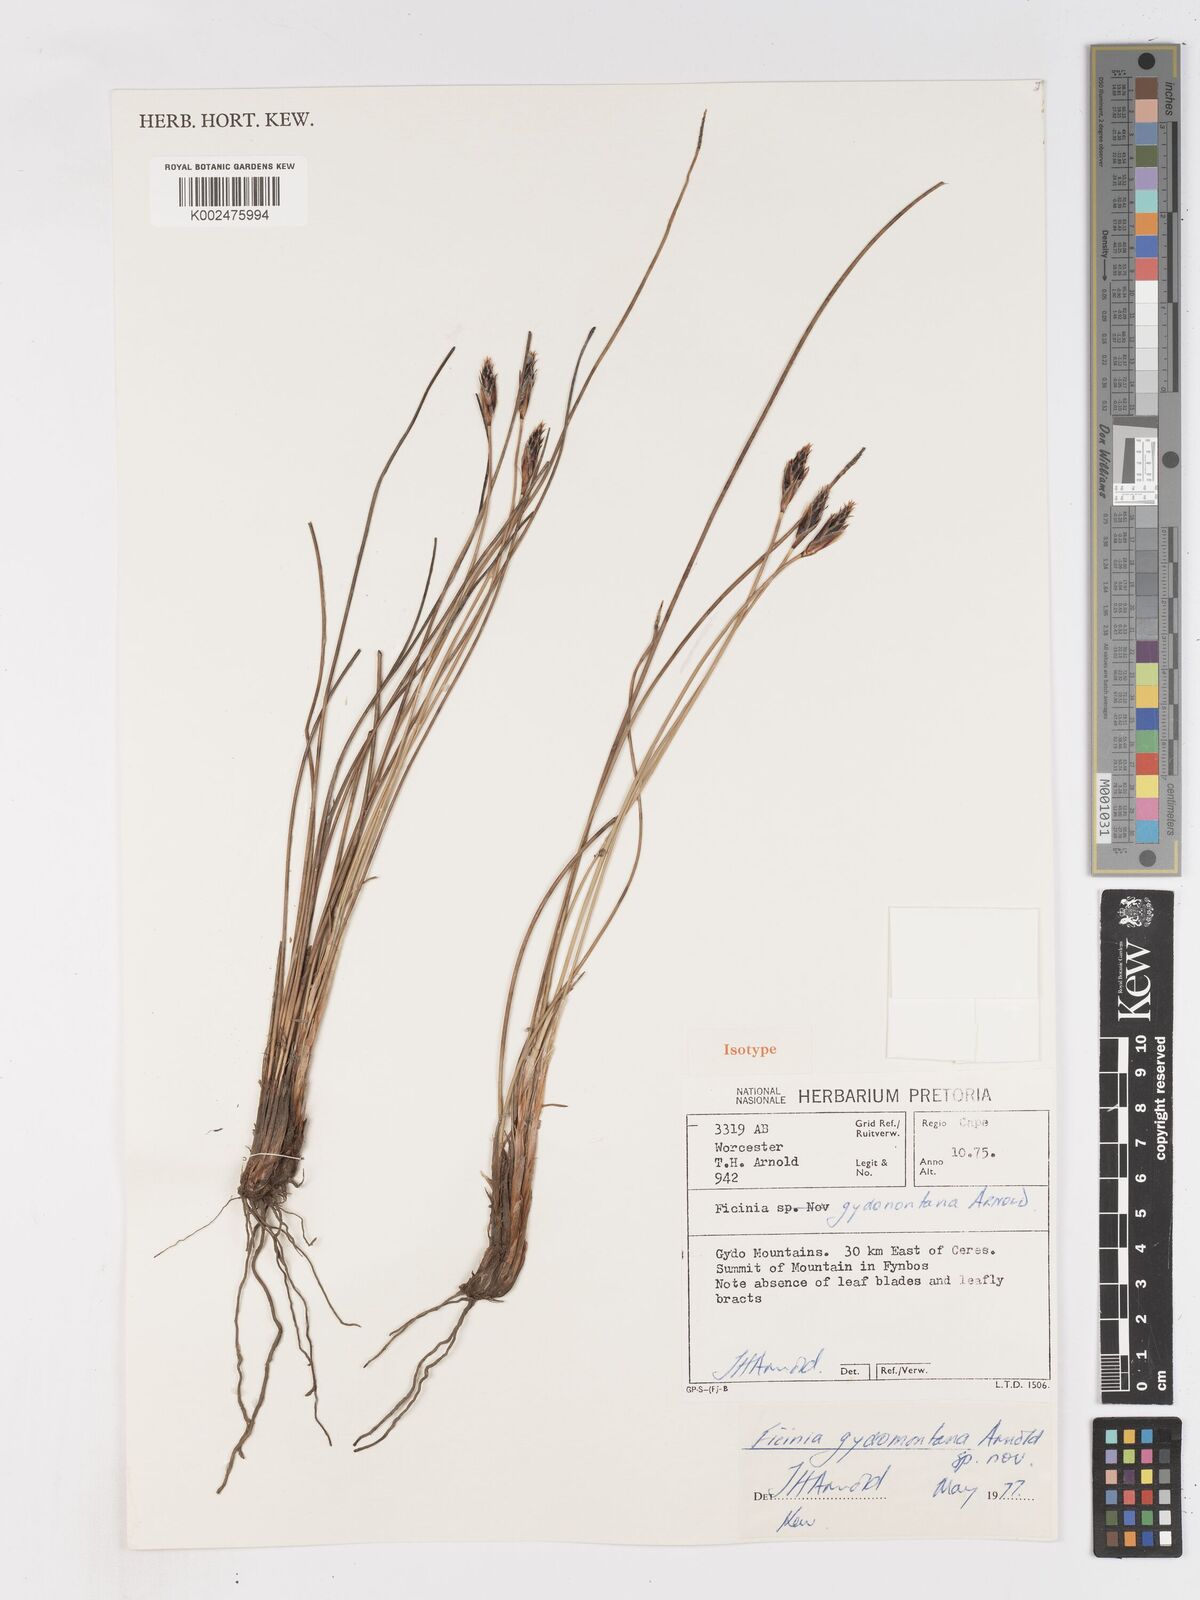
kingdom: Plantae
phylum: Tracheophyta
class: Liliopsida
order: Poales
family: Cyperaceae
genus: Ficinia
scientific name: Ficinia gydomontana
